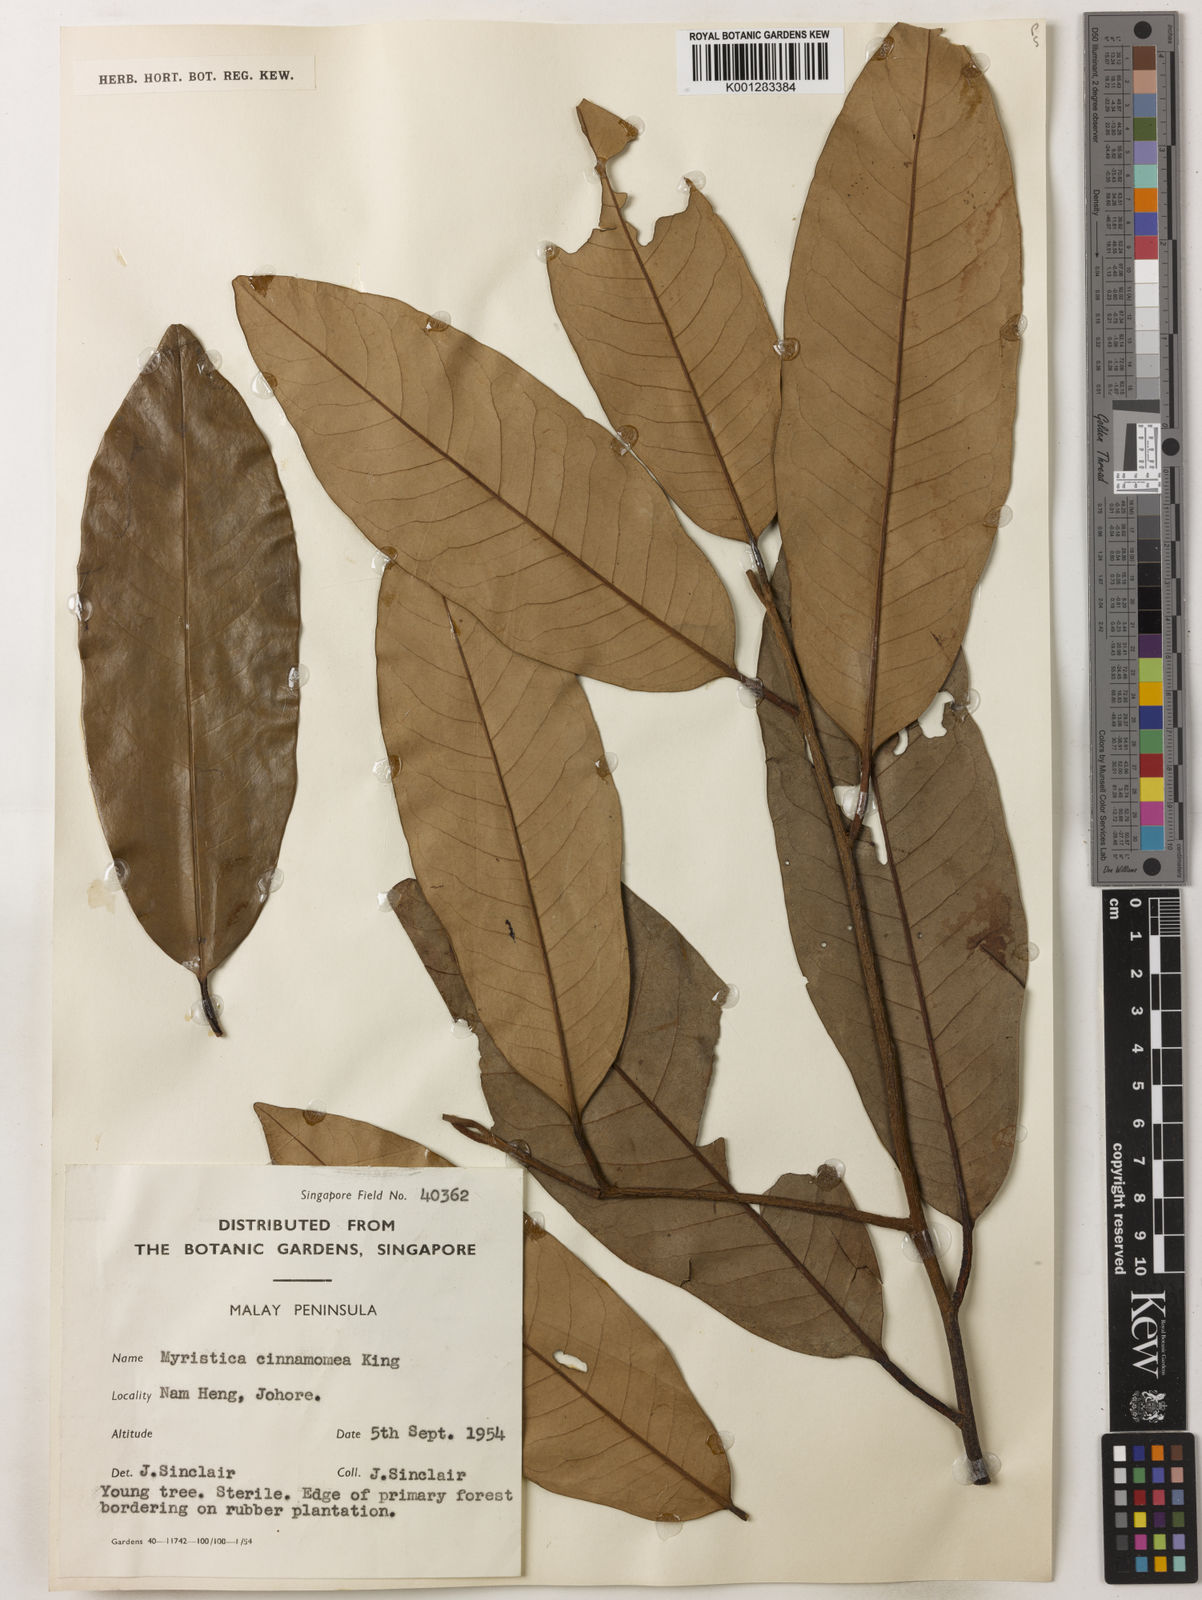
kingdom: Plantae
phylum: Tracheophyta
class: Magnoliopsida
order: Magnoliales
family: Myristicaceae
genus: Myristica
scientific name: Myristica cinnamomea
